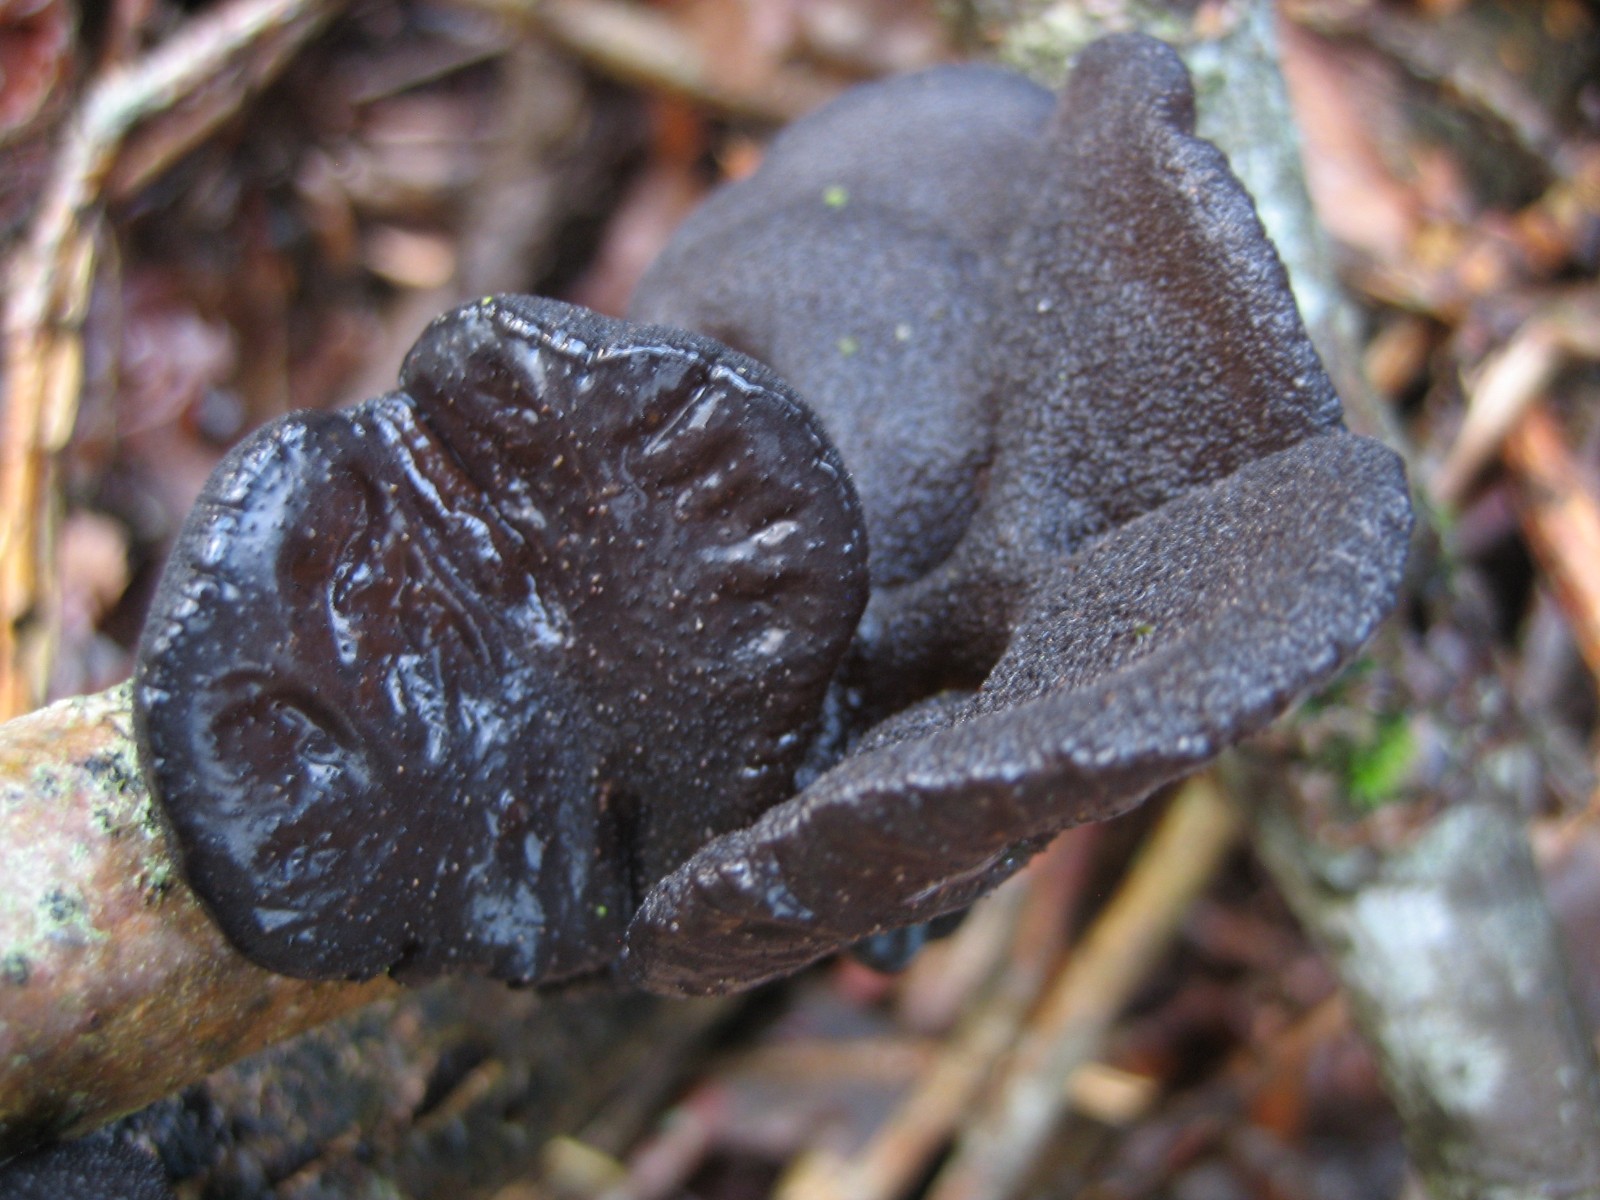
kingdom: Fungi
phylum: Basidiomycota
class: Agaricomycetes
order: Auriculariales
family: Auriculariaceae
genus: Exidia
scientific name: Exidia glandulosa
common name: ege-bævretop
